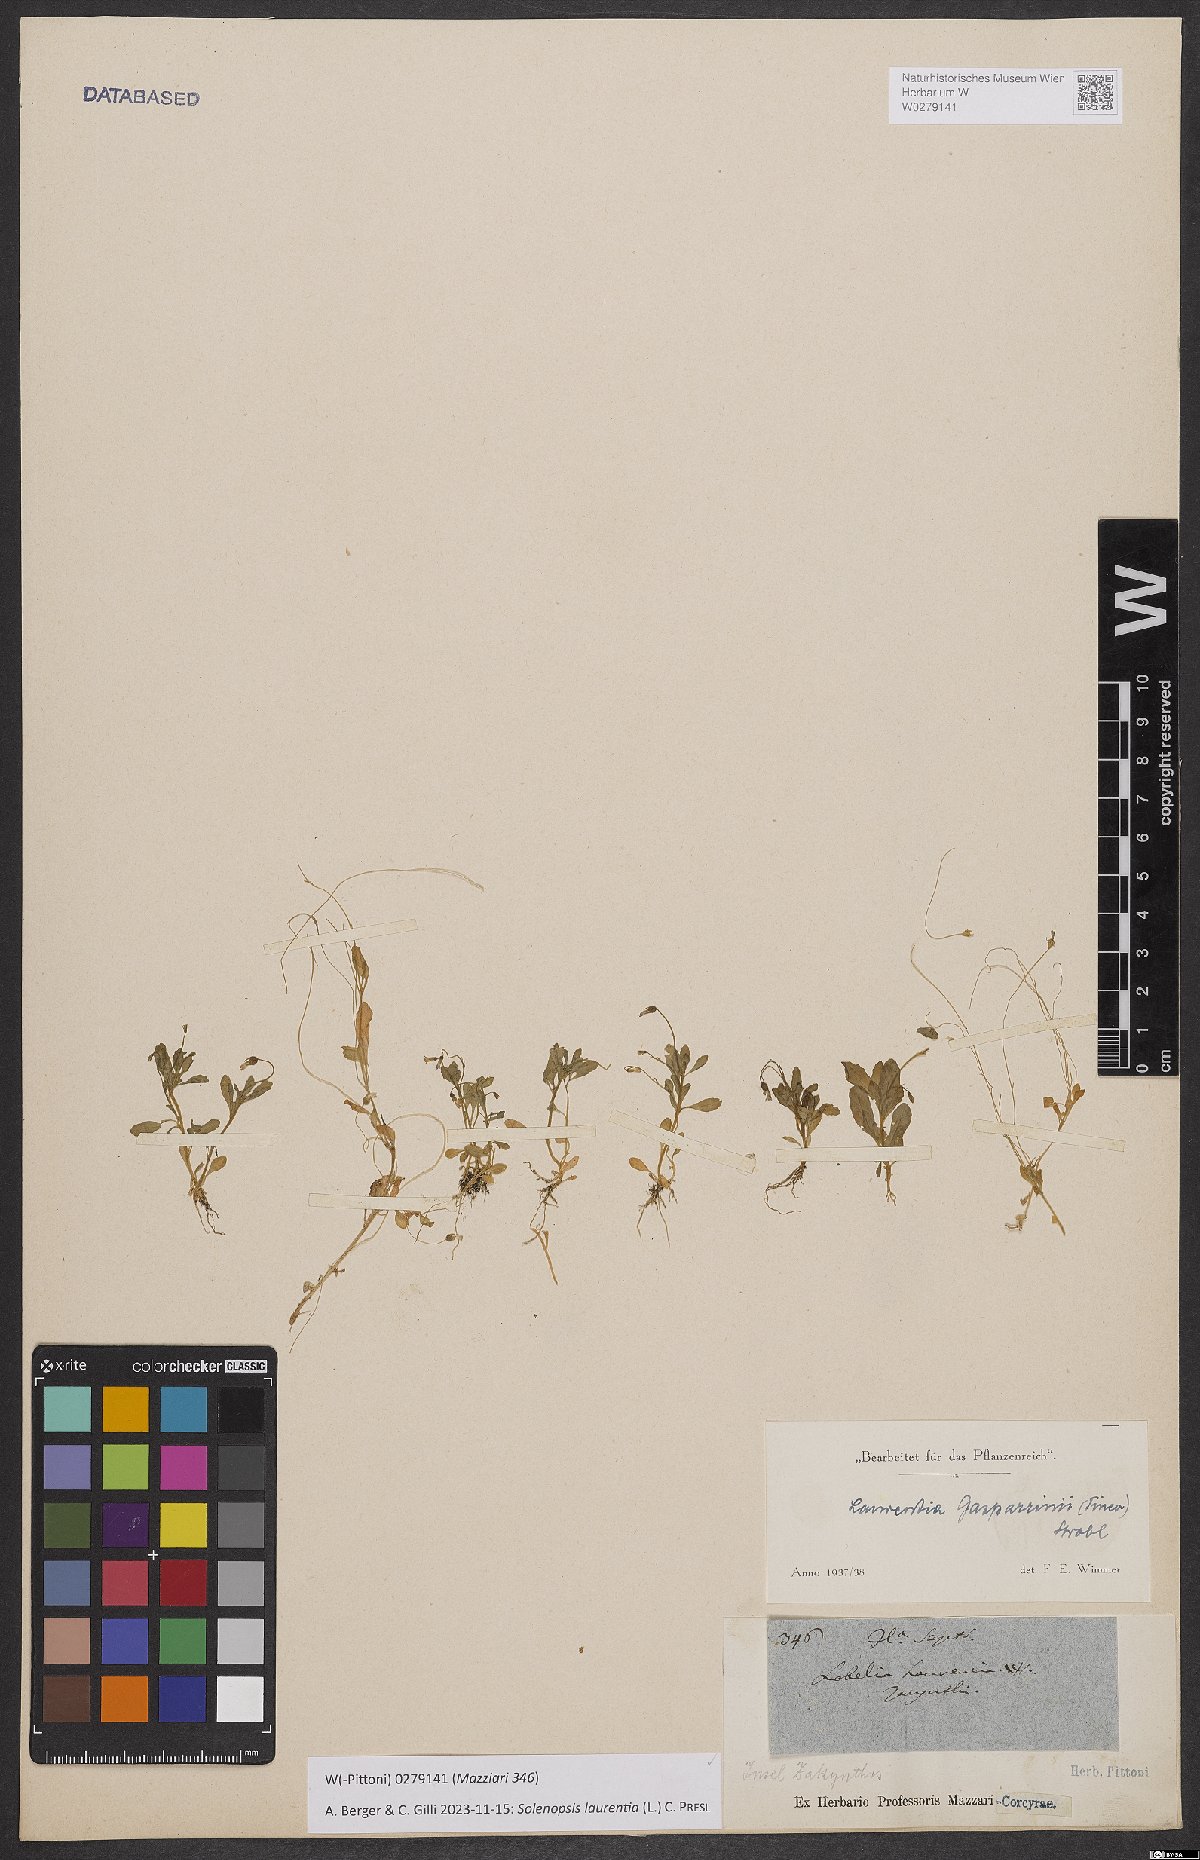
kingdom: Plantae
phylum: Tracheophyta
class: Magnoliopsida
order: Asterales
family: Campanulaceae
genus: Solenopsis
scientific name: Solenopsis laurentia
